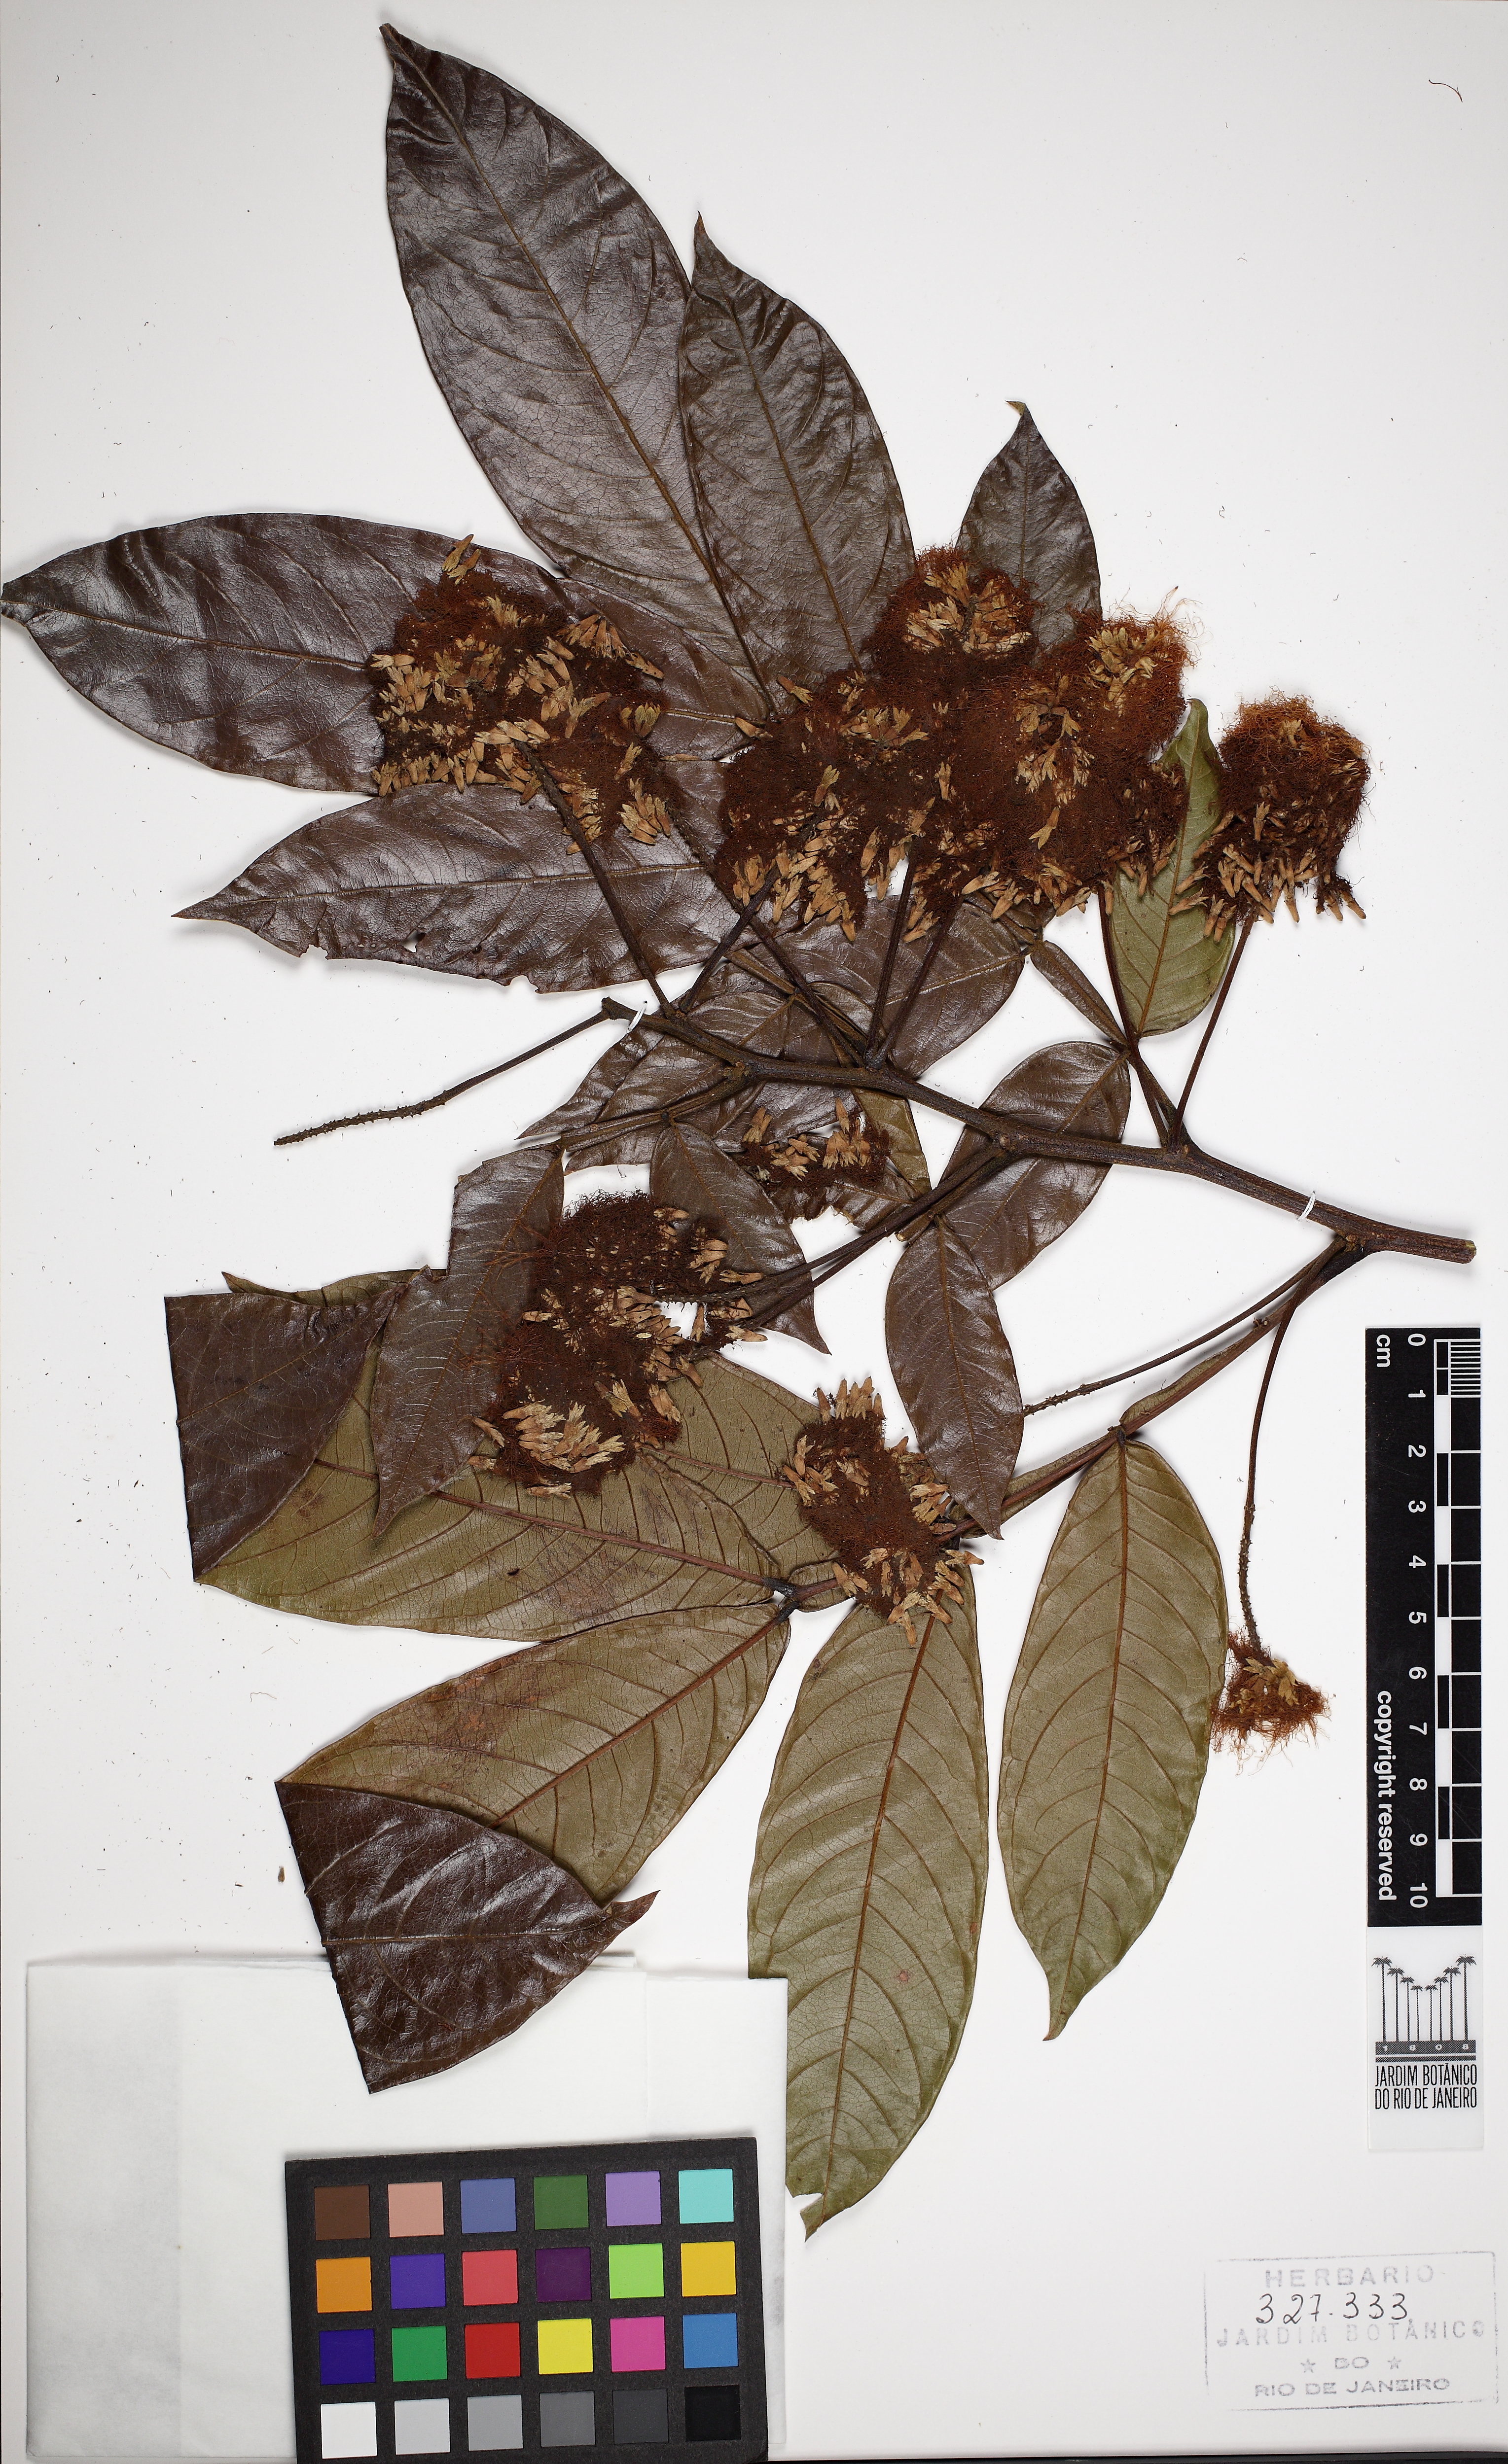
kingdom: Plantae
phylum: Tracheophyta
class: Magnoliopsida
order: Fabales
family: Fabaceae
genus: Inga
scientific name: Inga acreana
